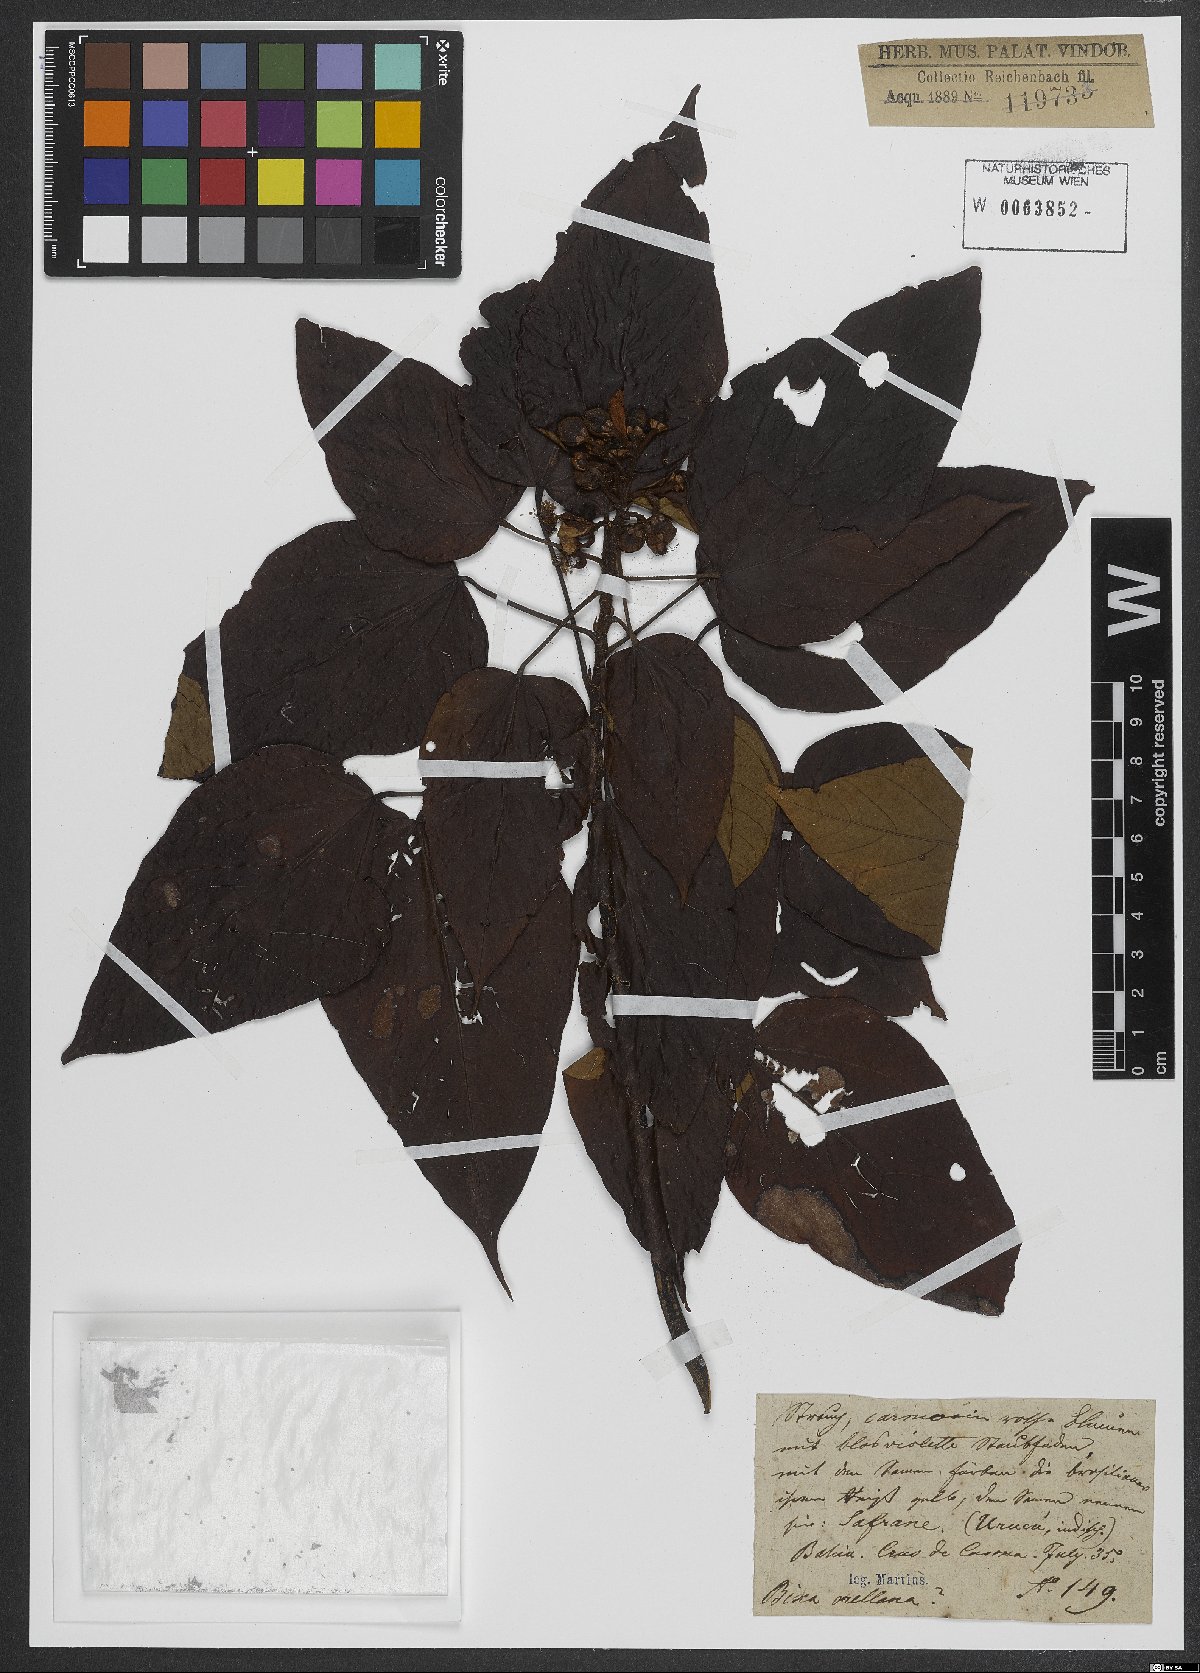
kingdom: Plantae
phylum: Tracheophyta
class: Magnoliopsida
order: Malvales
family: Bixaceae
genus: Bixa
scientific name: Bixa orellana
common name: Lipsticktree
